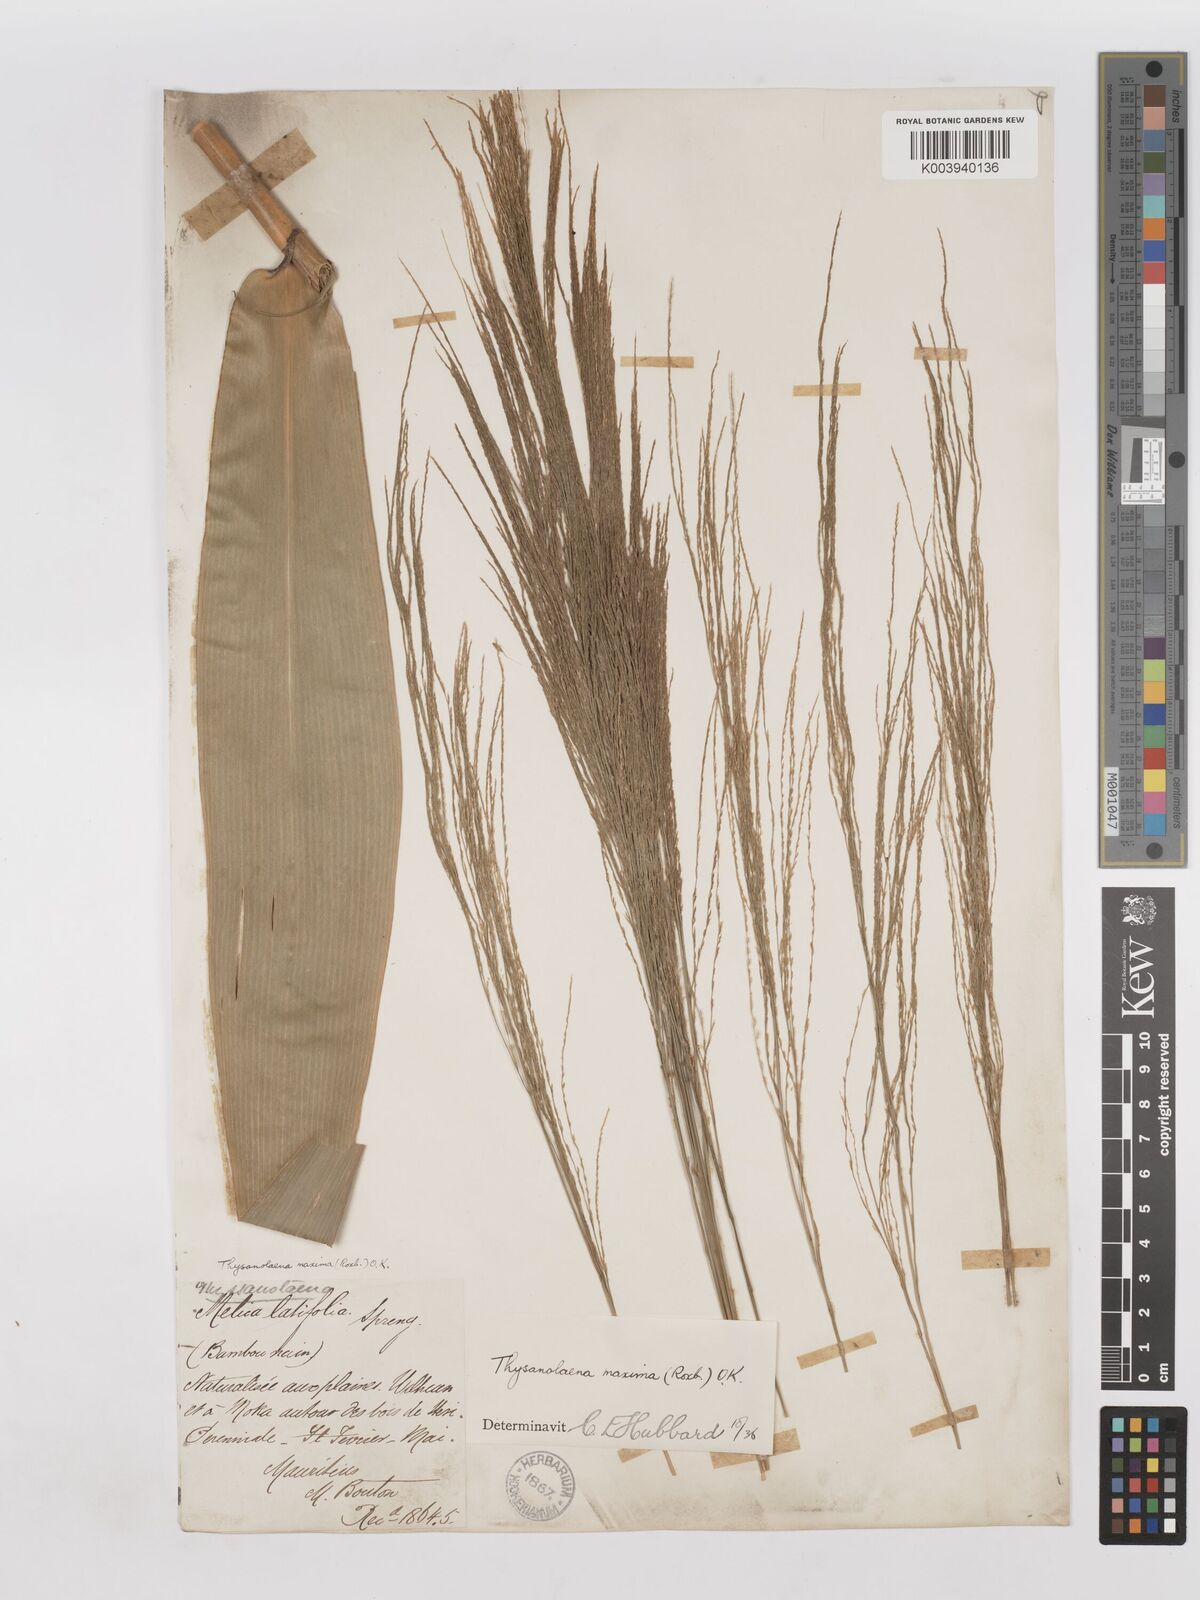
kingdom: Plantae
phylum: Tracheophyta
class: Liliopsida
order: Poales
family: Poaceae
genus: Thysanolaena
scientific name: Thysanolaena latifolia
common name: Tiger grass
